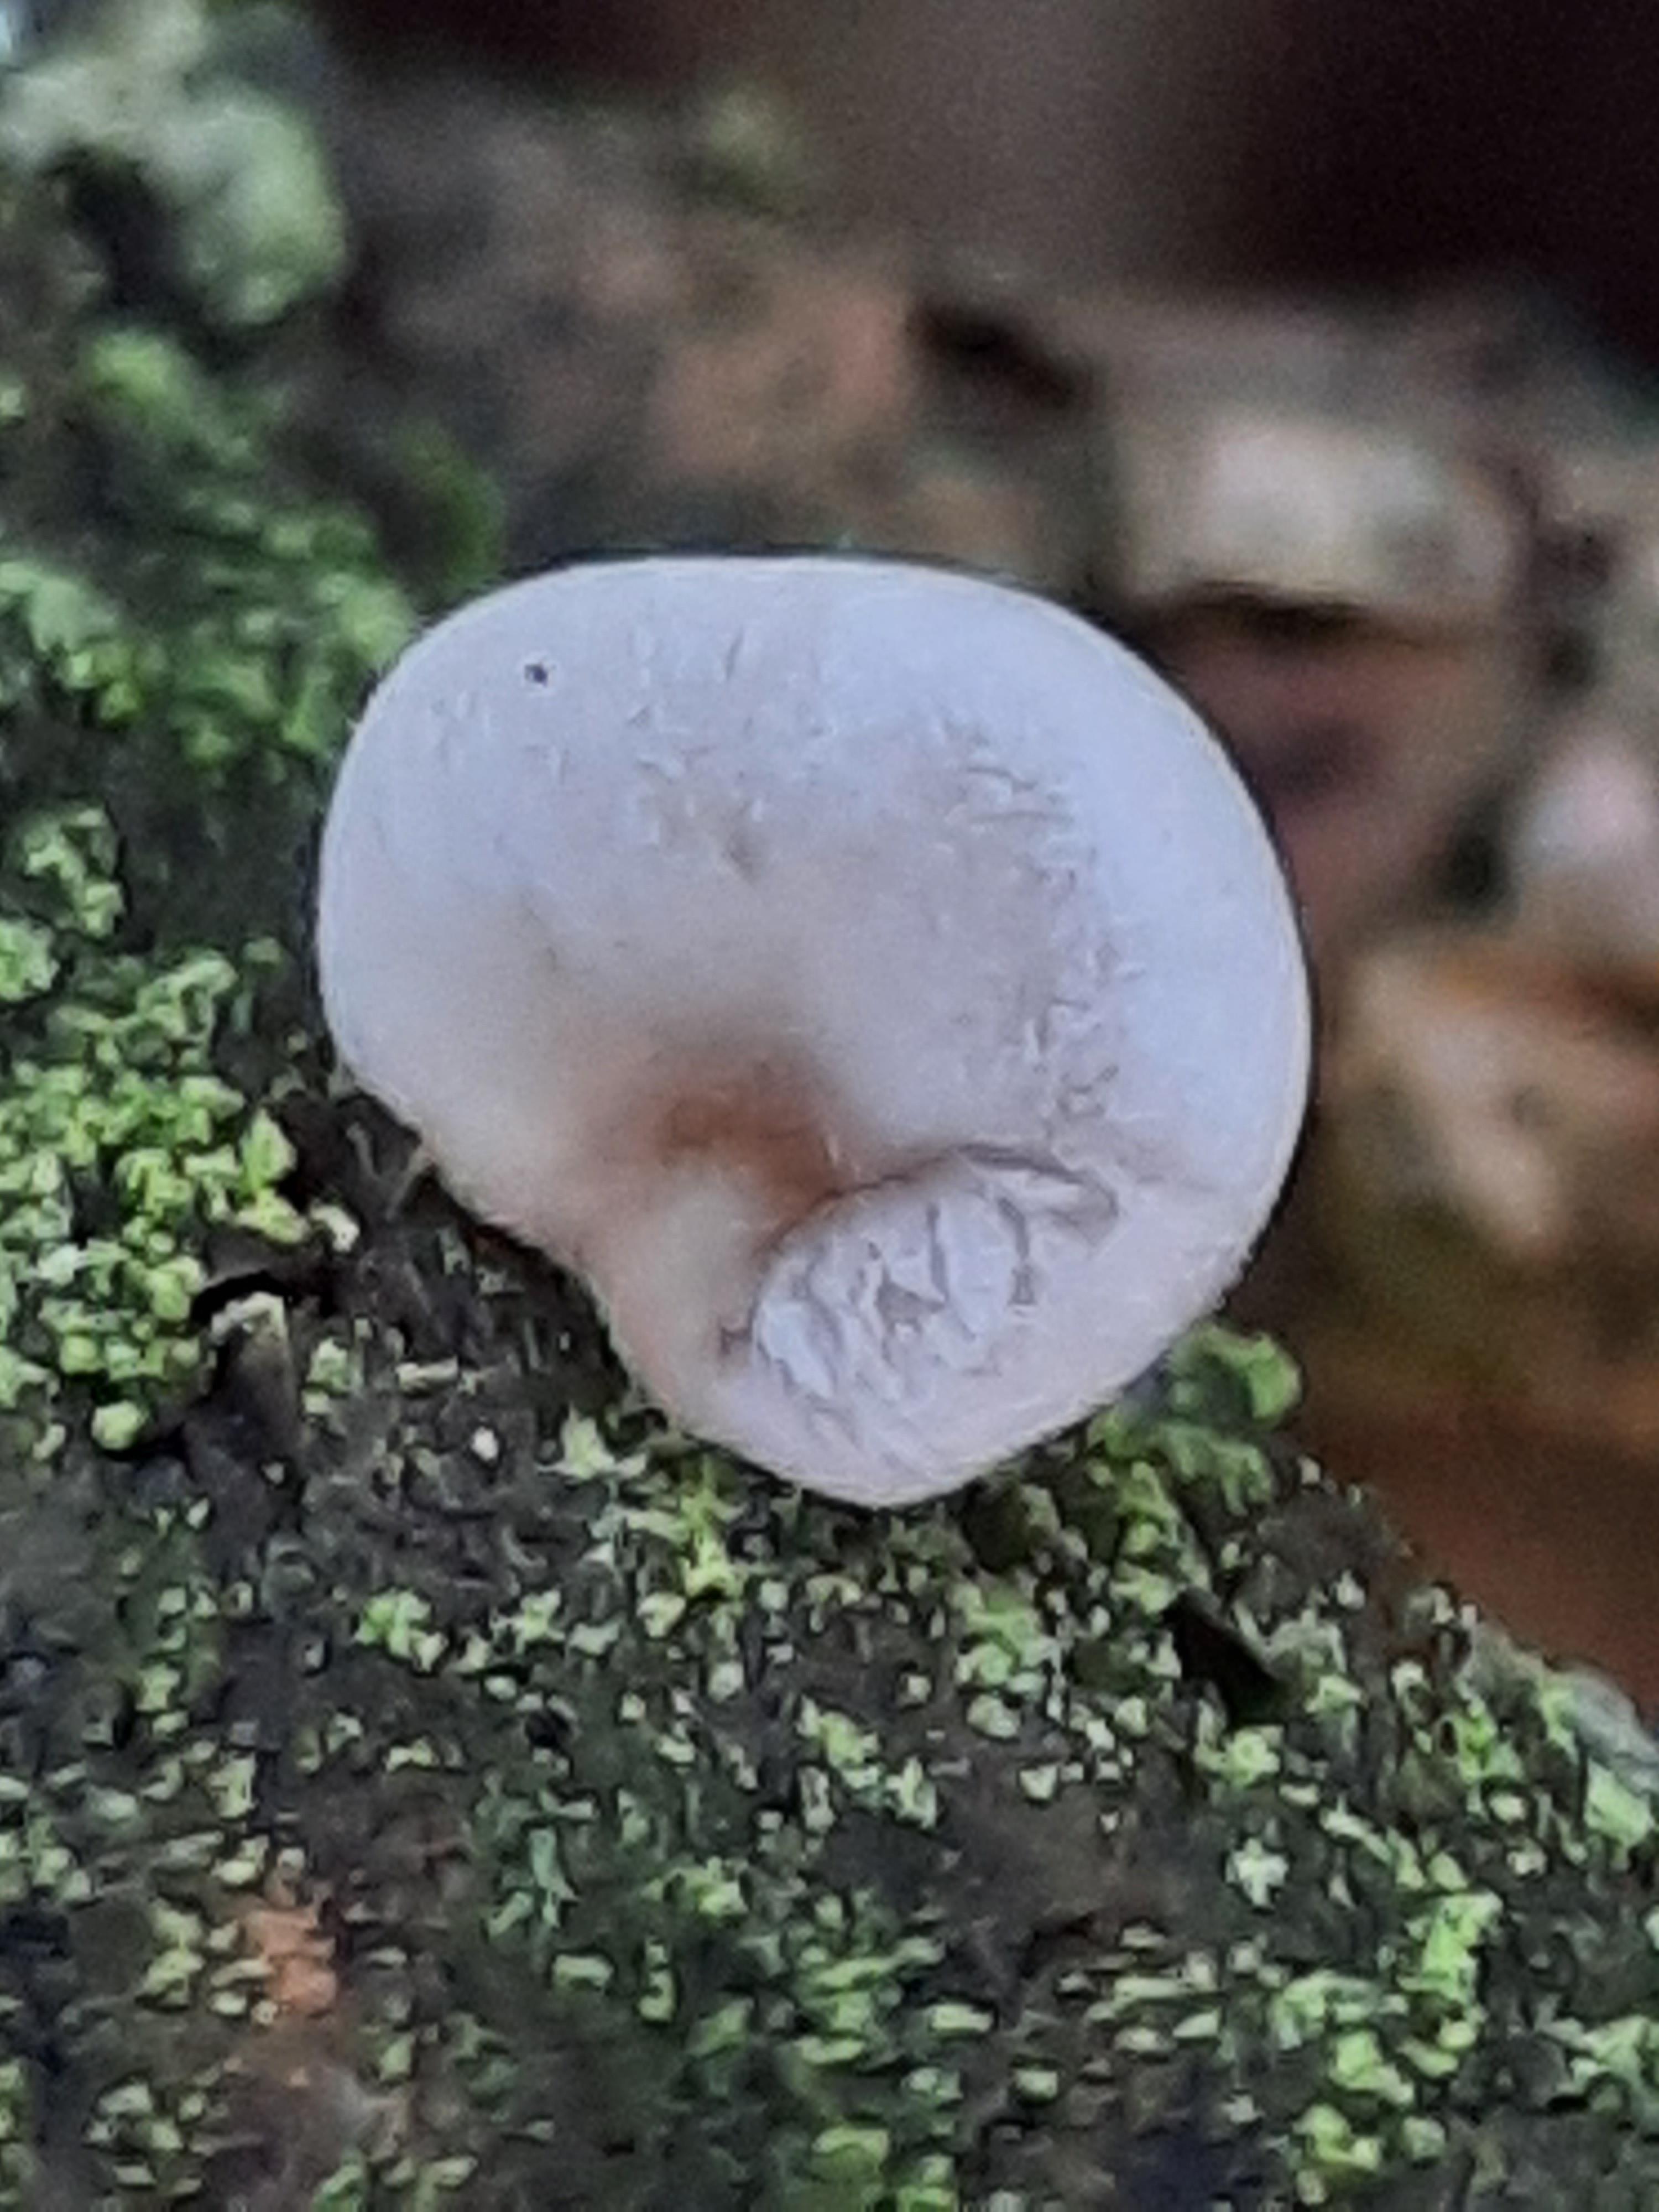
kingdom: Fungi
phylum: Basidiomycota
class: Agaricomycetes
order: Agaricales
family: Mycenaceae
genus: Panellus
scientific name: Panellus mitis
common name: mild epaulethat
